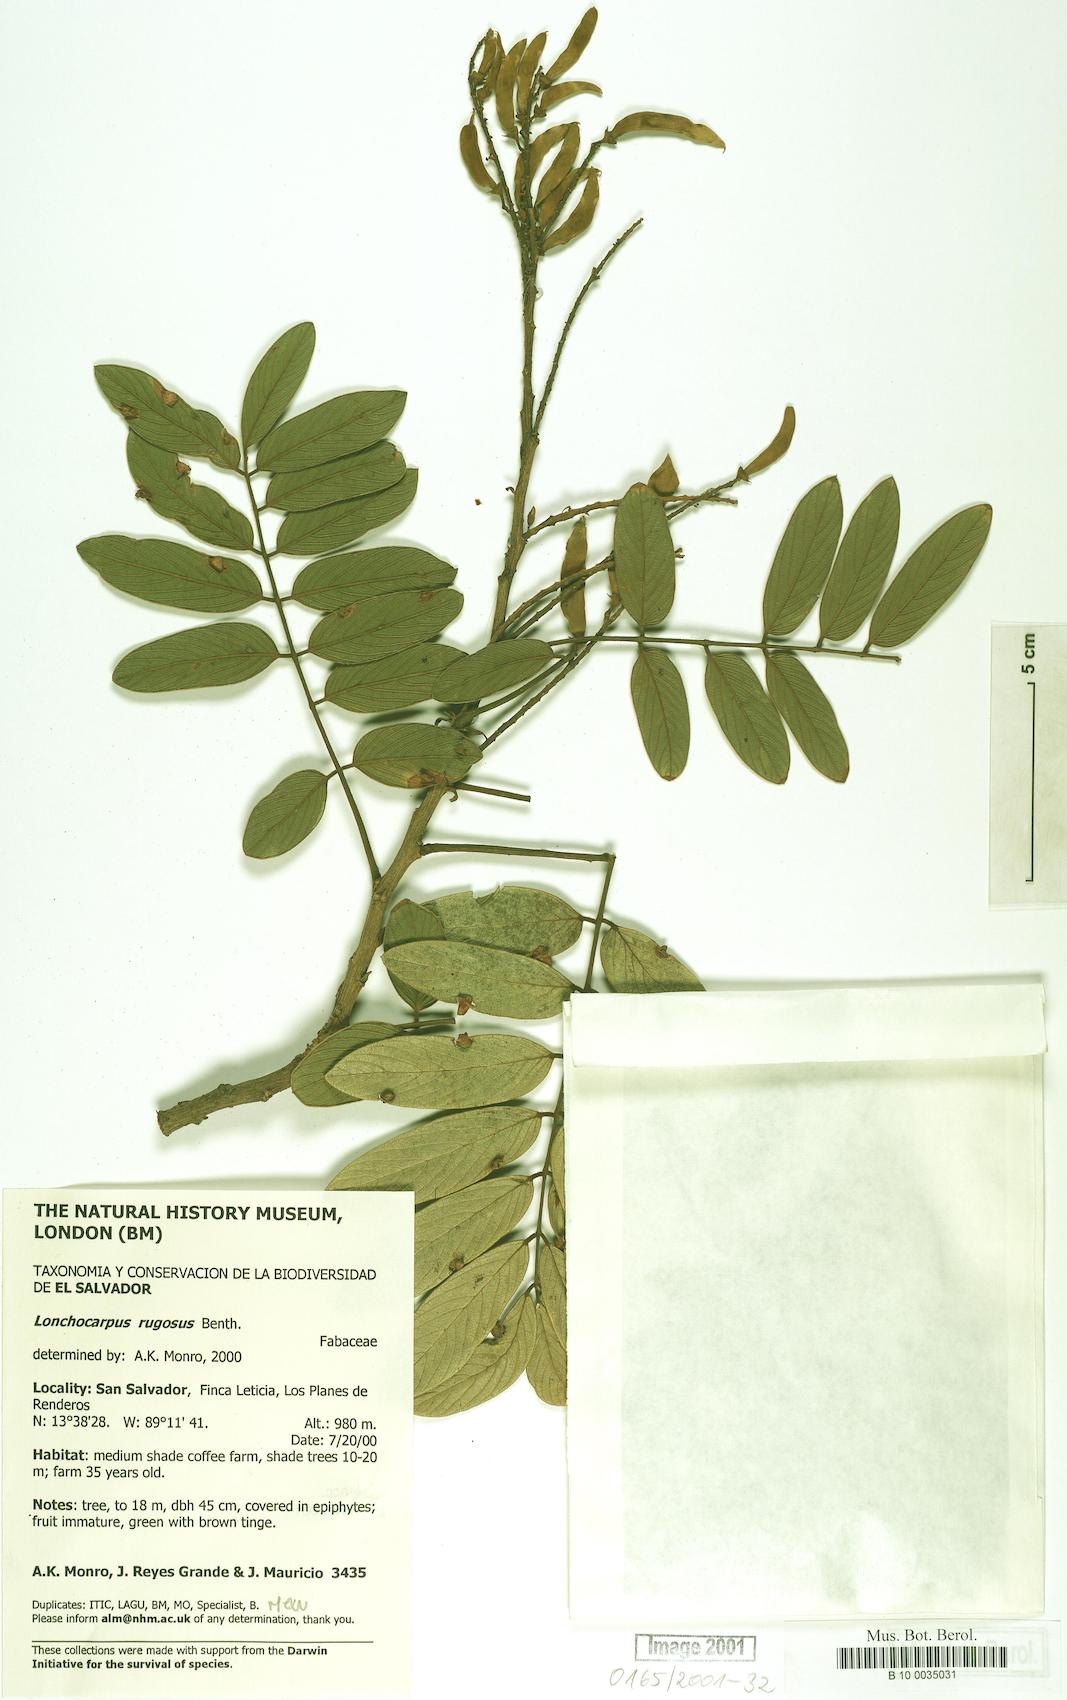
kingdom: Plantae
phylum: Tracheophyta
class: Magnoliopsida
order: Fabales
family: Fabaceae
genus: Lonchocarpus
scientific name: Lonchocarpus rugosus
